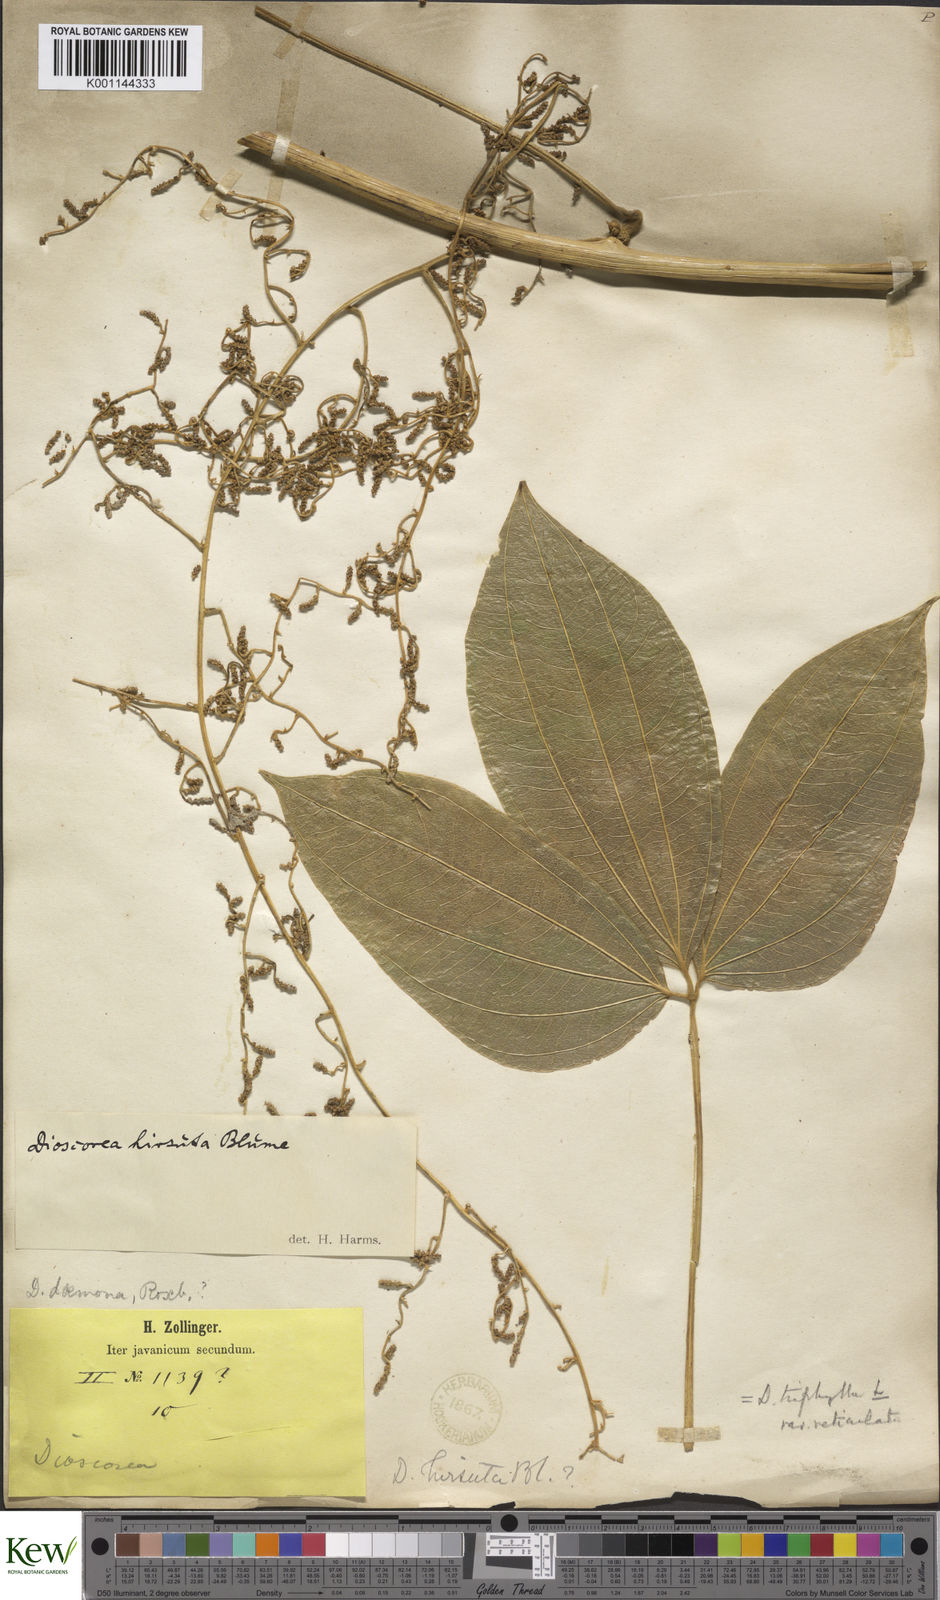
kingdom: Plantae
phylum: Tracheophyta
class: Liliopsida
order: Dioscoreales
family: Dioscoreaceae
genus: Dioscorea
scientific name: Dioscorea hispida
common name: Asiatic bitter yam
